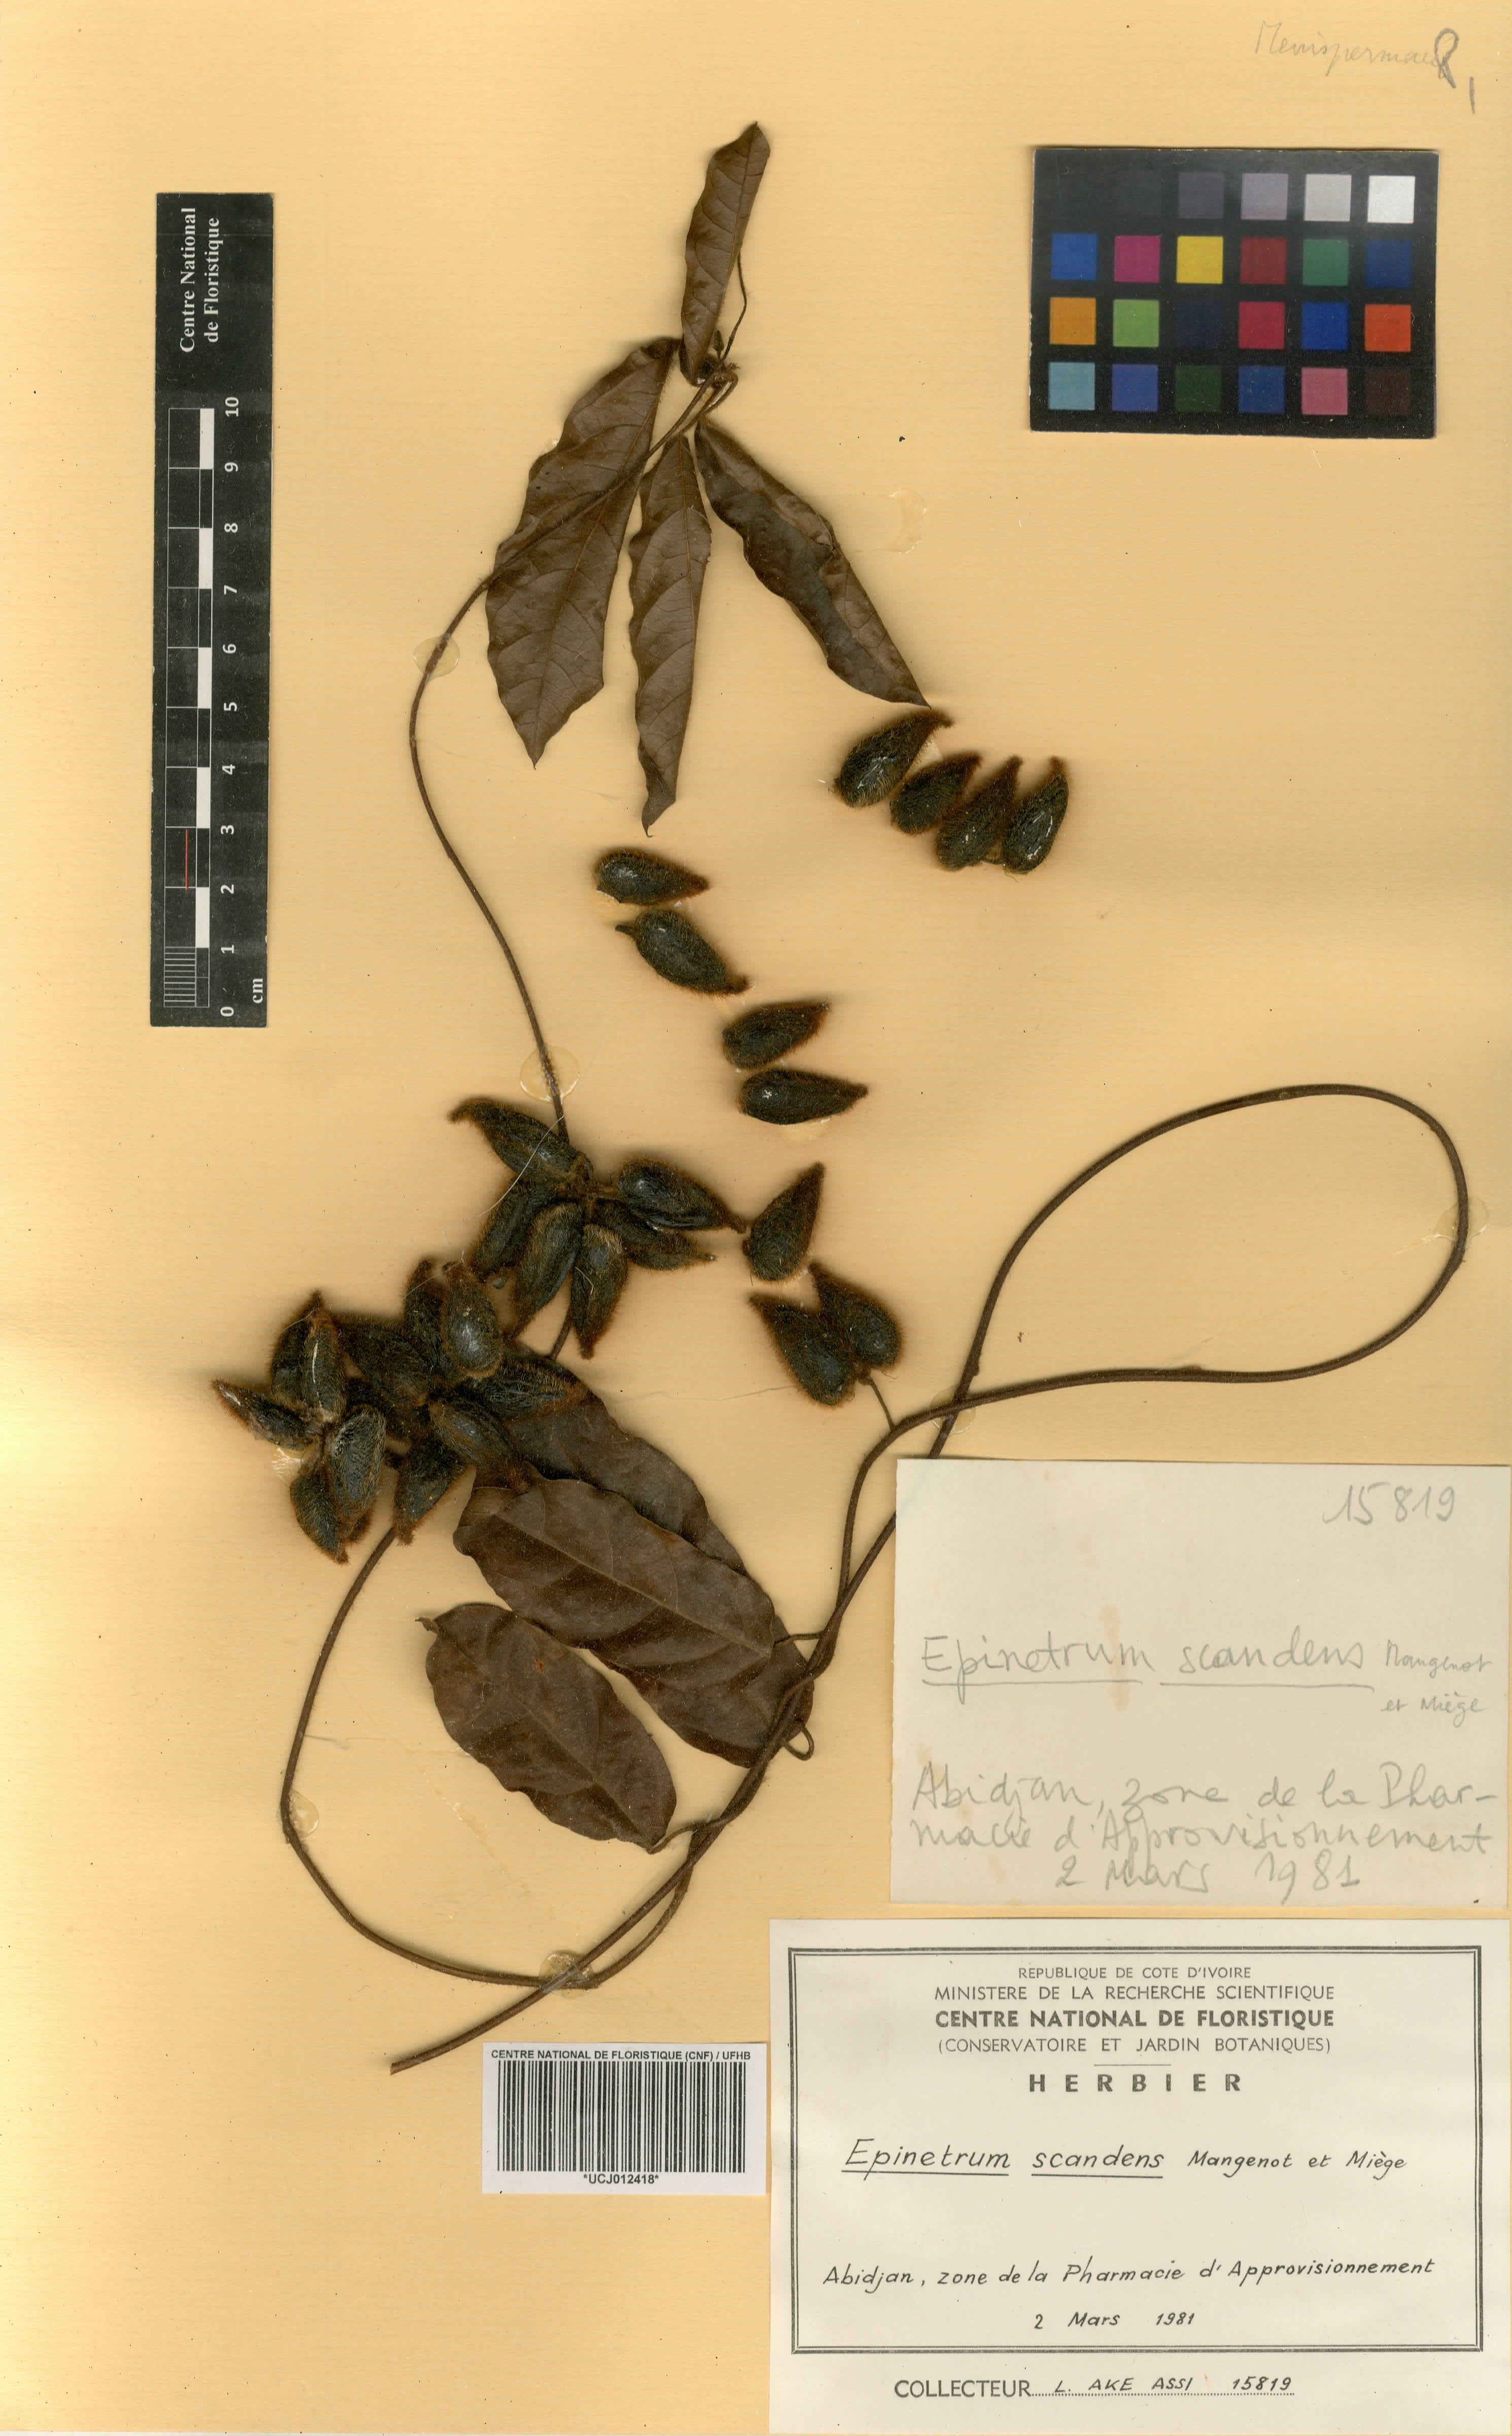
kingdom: Plantae
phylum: Tracheophyta
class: Magnoliopsida
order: Ranunculales
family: Menispermaceae
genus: Albertisia
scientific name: Albertisia scandens
